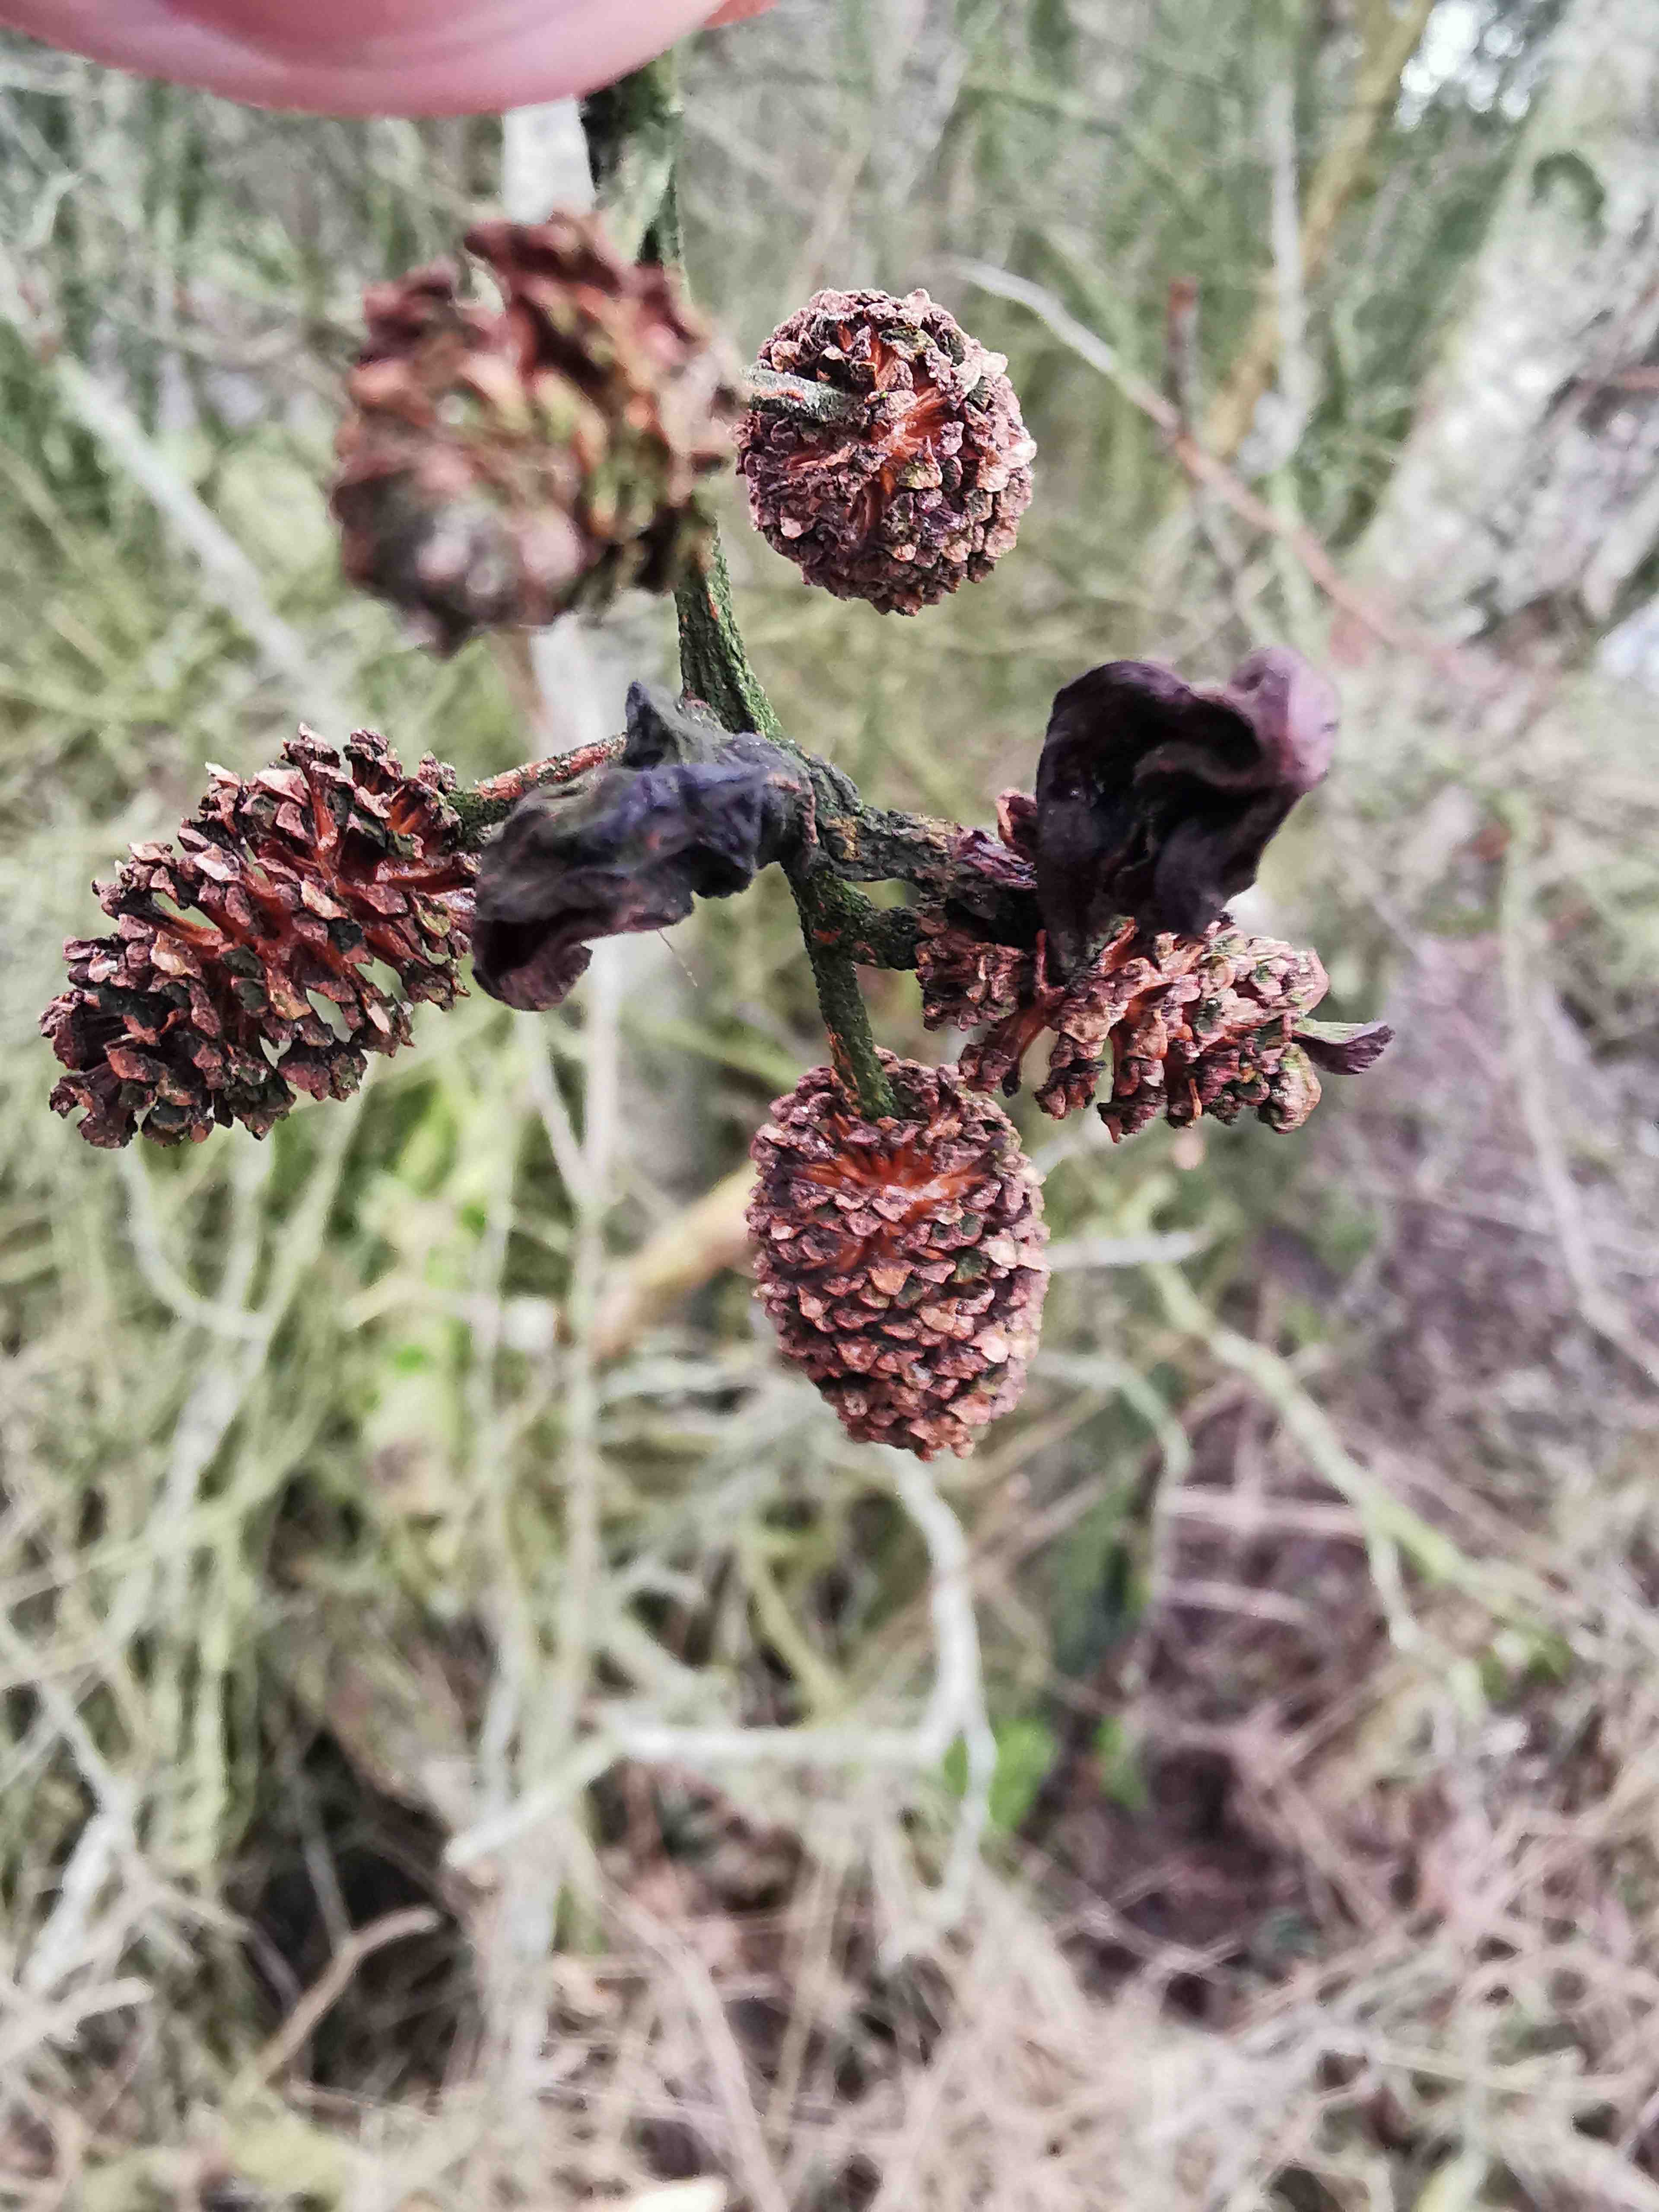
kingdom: Fungi
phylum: Ascomycota
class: Taphrinomycetes
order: Taphrinales
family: Taphrinaceae
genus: Taphrina
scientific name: Taphrina alni
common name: Alder tongue
